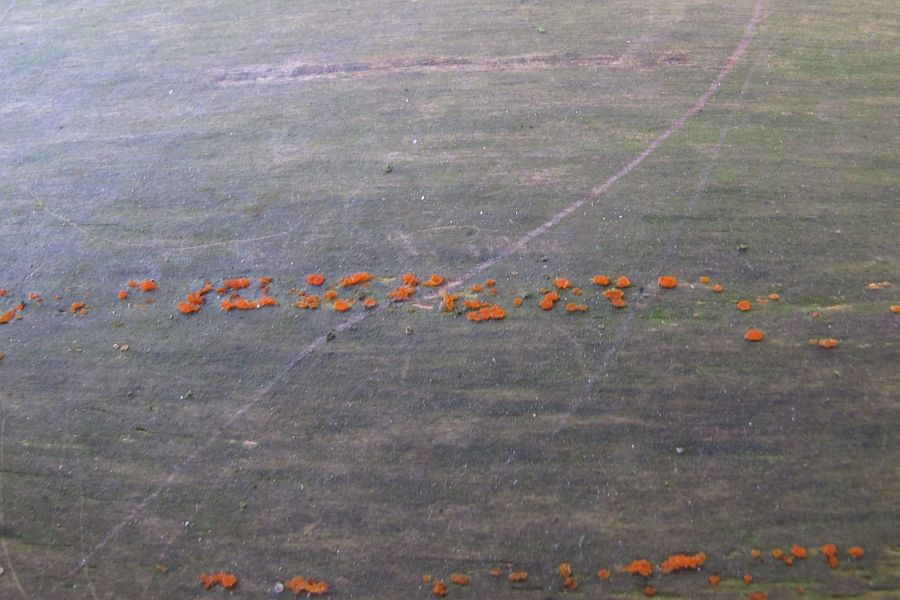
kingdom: Fungi
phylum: Basidiomycota
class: Dacrymycetes
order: Dacrymycetales
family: Dacrymycetaceae
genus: Dacrymyces
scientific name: Dacrymyces stillatus
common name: almindelig tåresvamp
